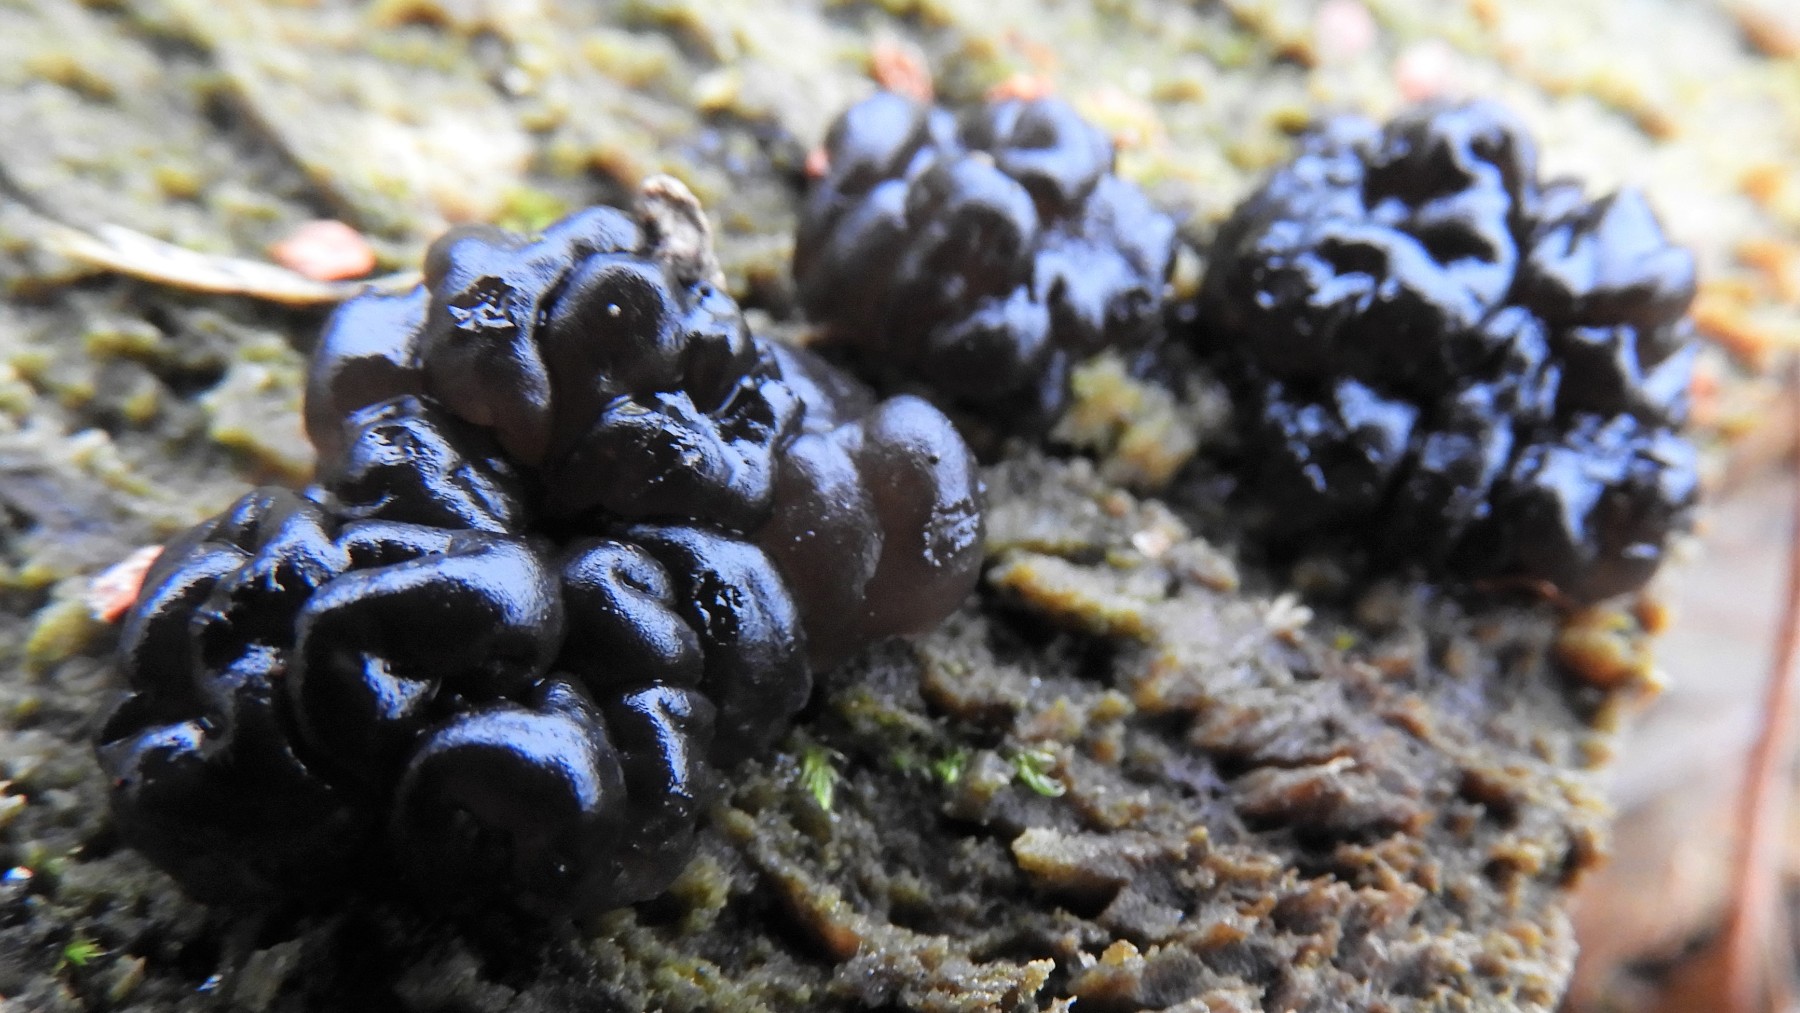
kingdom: Fungi
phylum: Basidiomycota
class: Agaricomycetes
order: Auriculariales
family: Auriculariaceae
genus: Exidia
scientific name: Exidia nigricans
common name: almindelig bævretop
